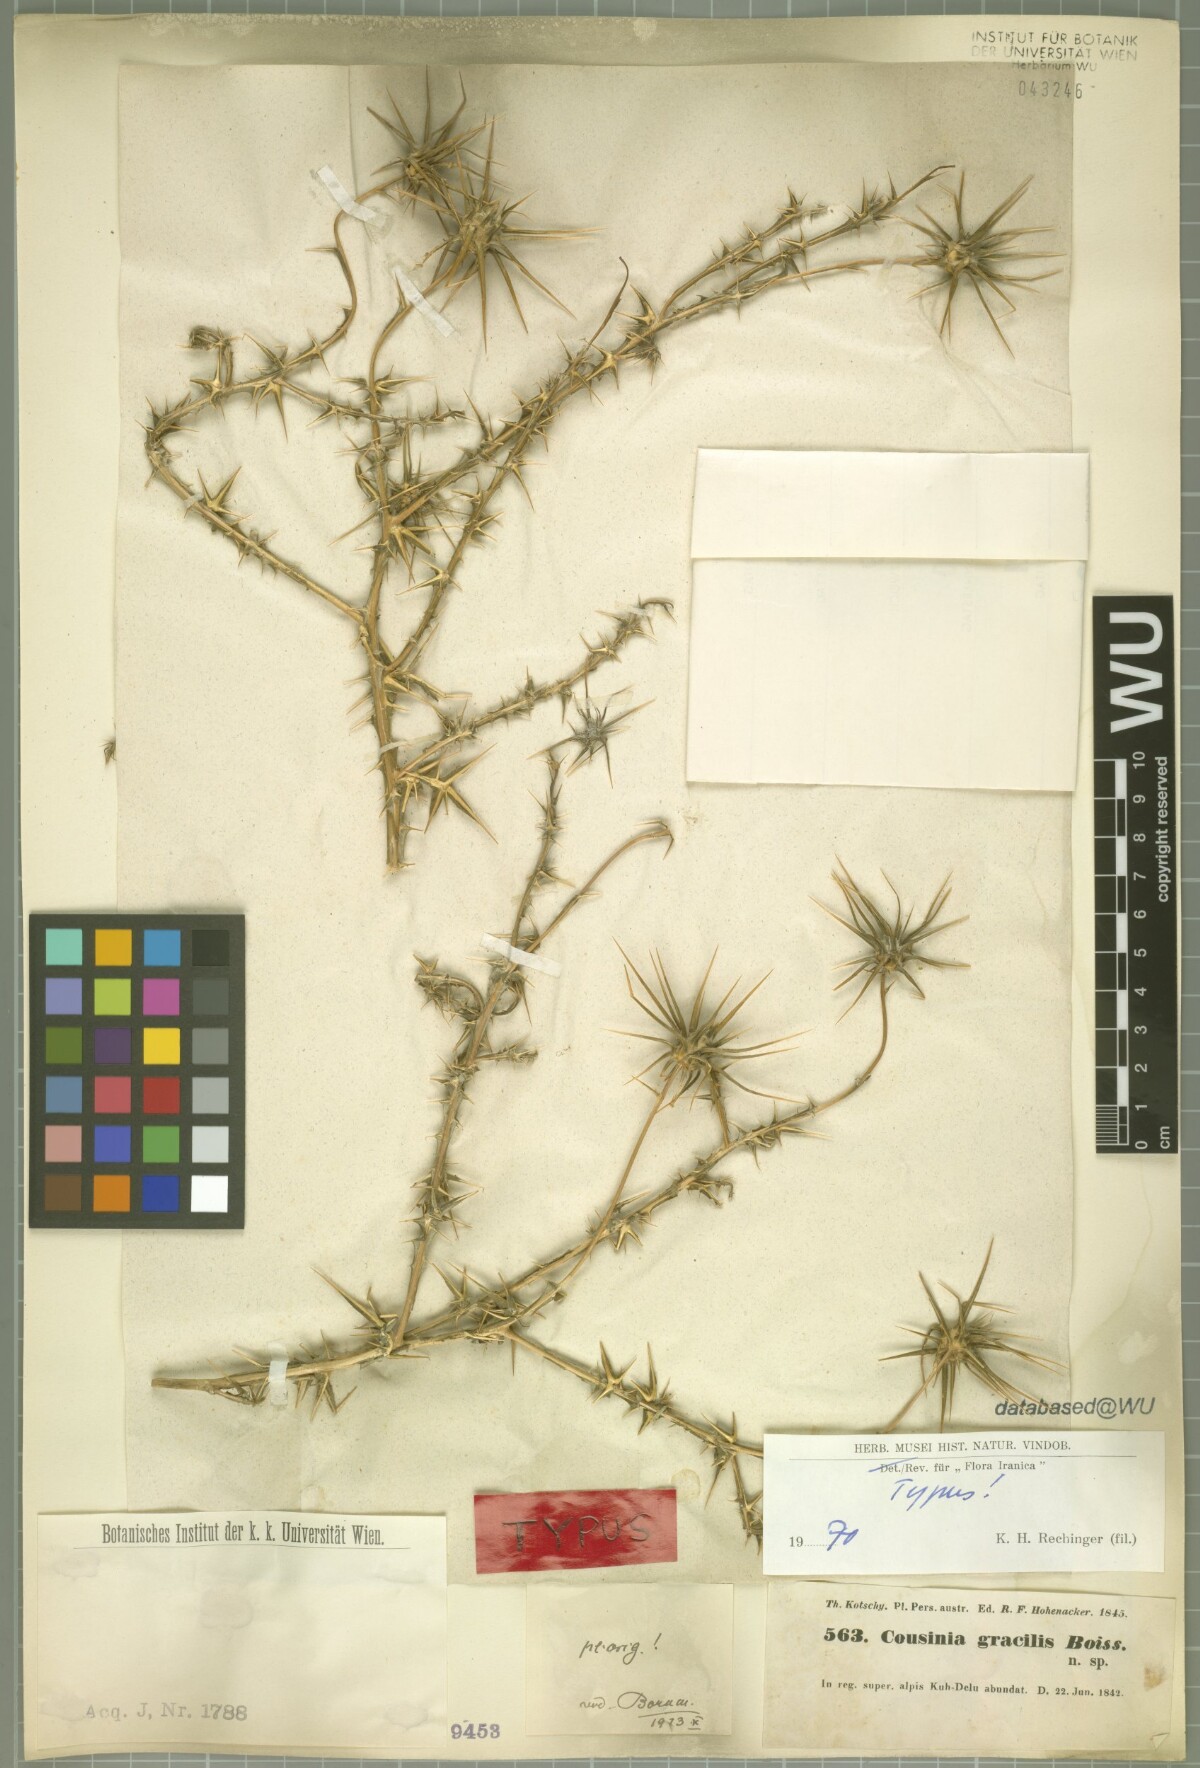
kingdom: Plantae
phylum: Tracheophyta
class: Magnoliopsida
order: Asterales
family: Asteraceae
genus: Cousinia
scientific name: Cousinia gracilis
